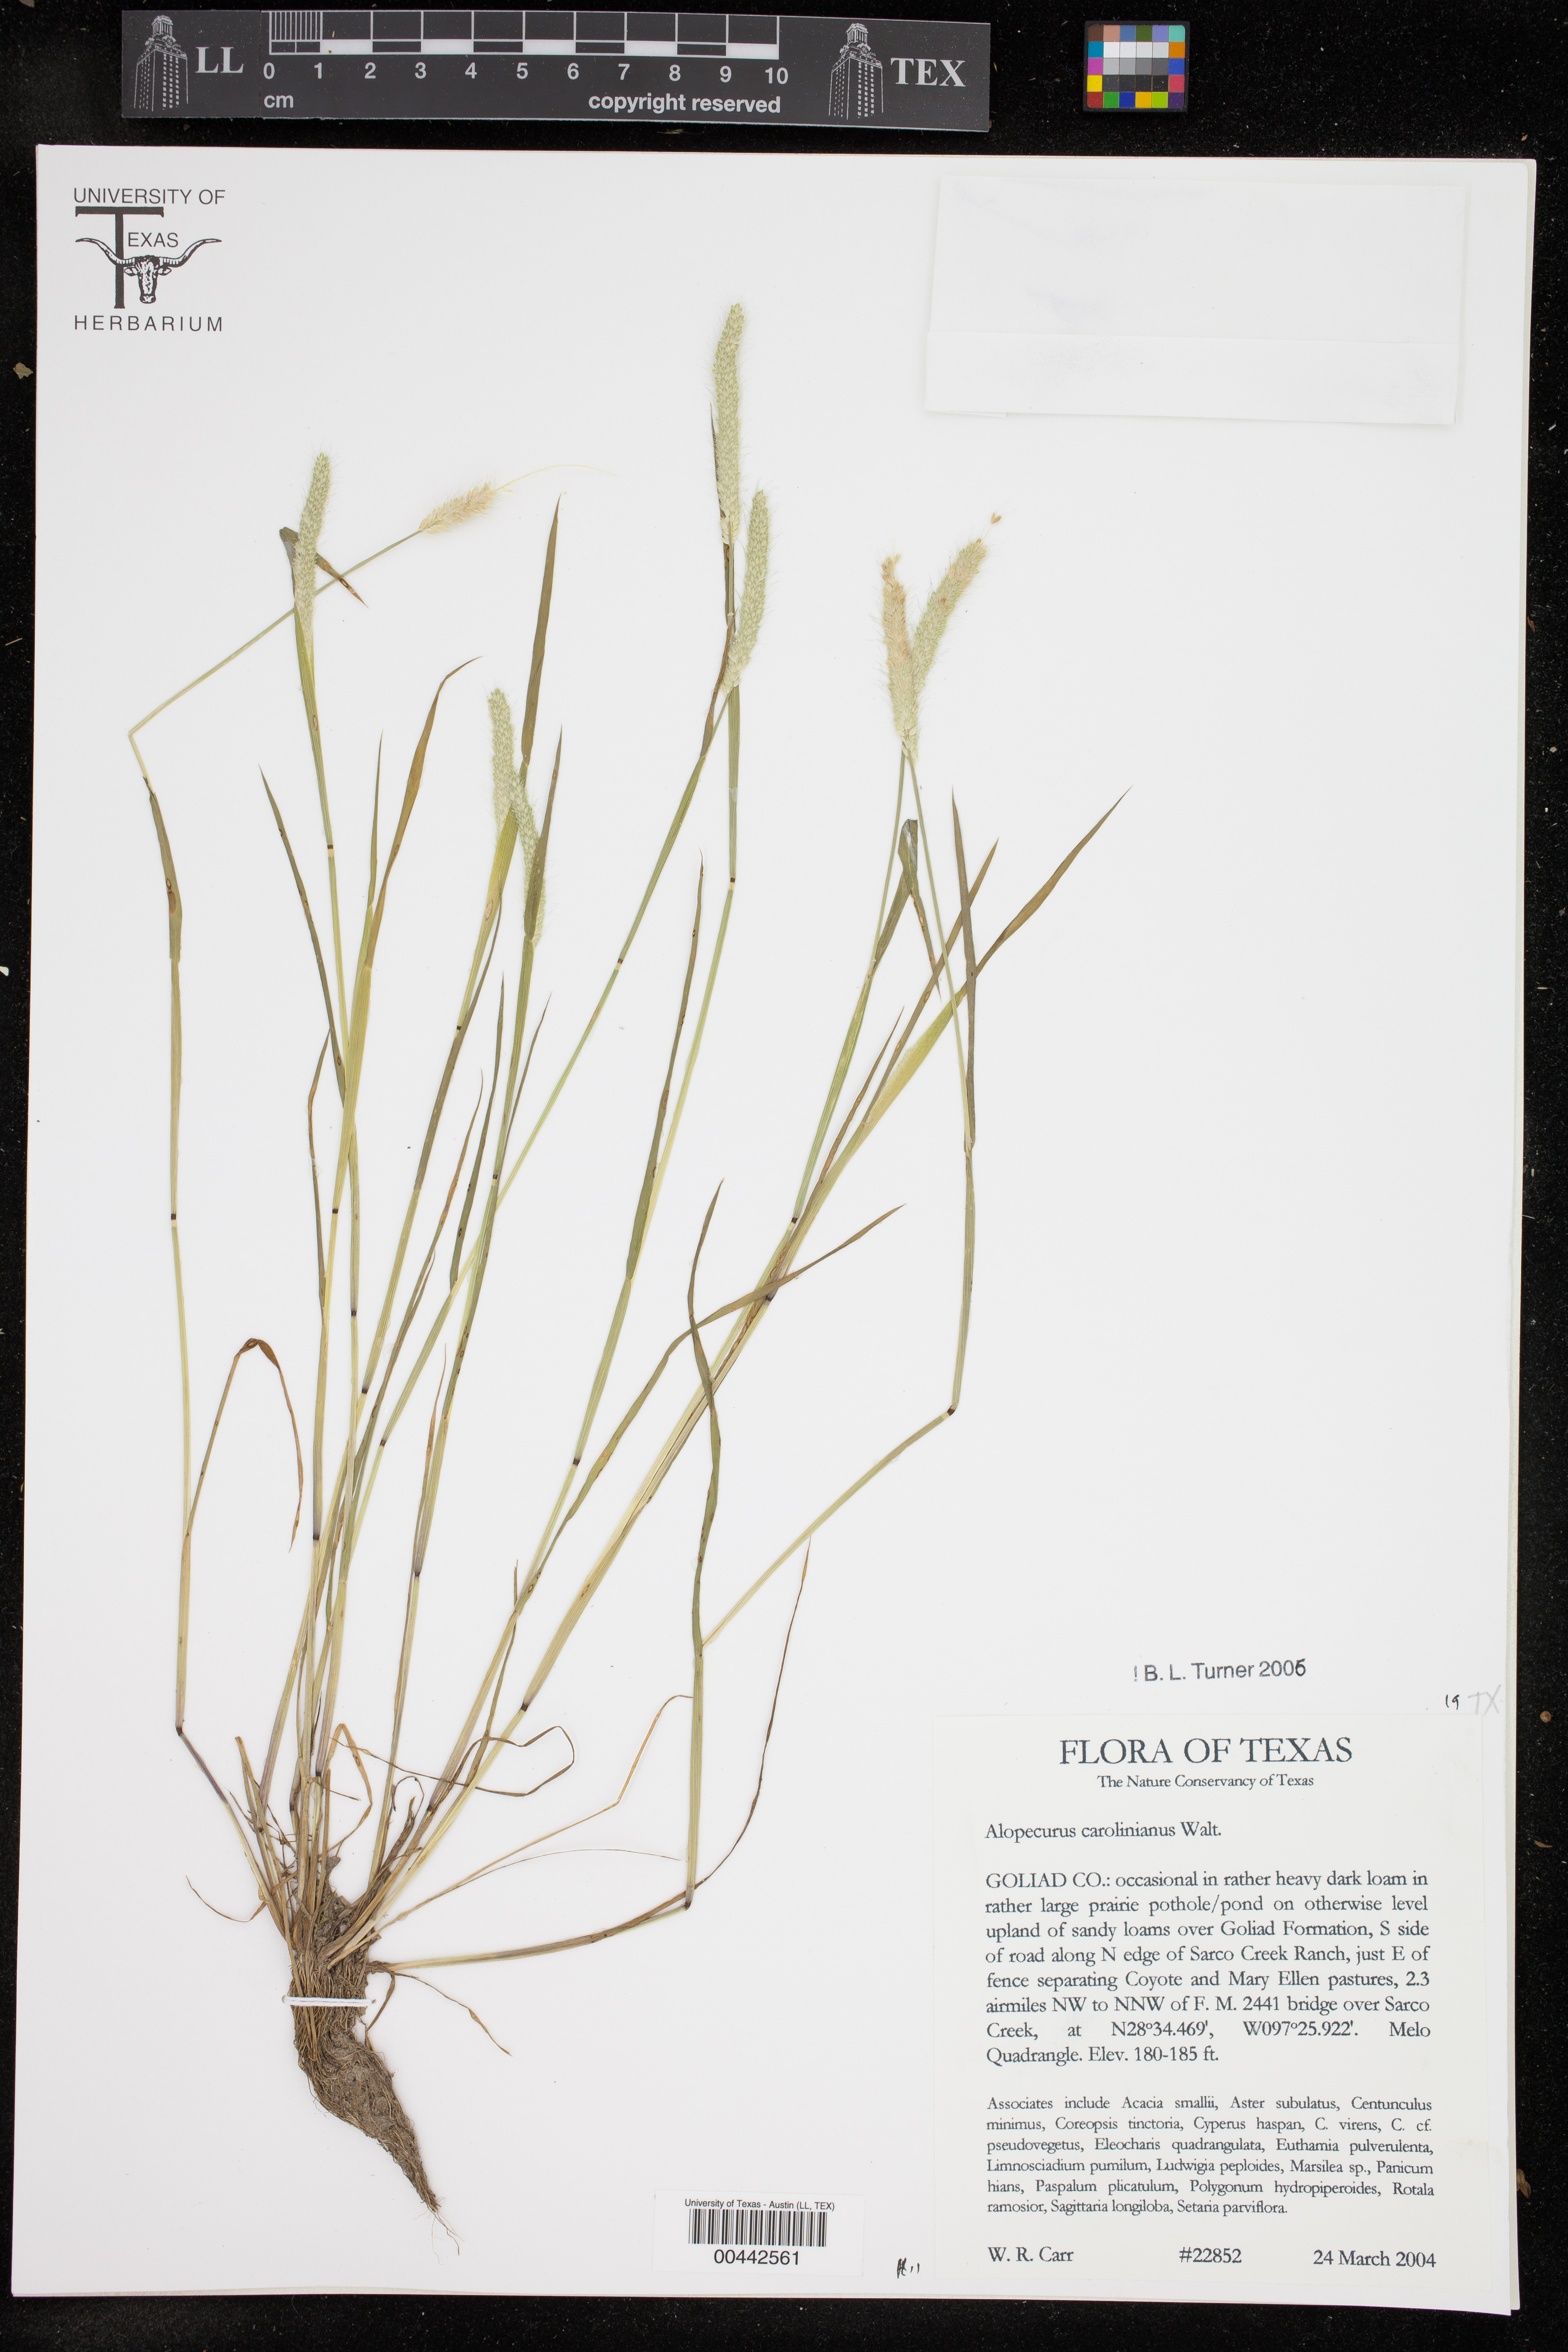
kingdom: Plantae
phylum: Tracheophyta
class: Liliopsida
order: Poales
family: Poaceae
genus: Alopecurus
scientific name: Alopecurus carolinianus
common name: Tufted foxtail
